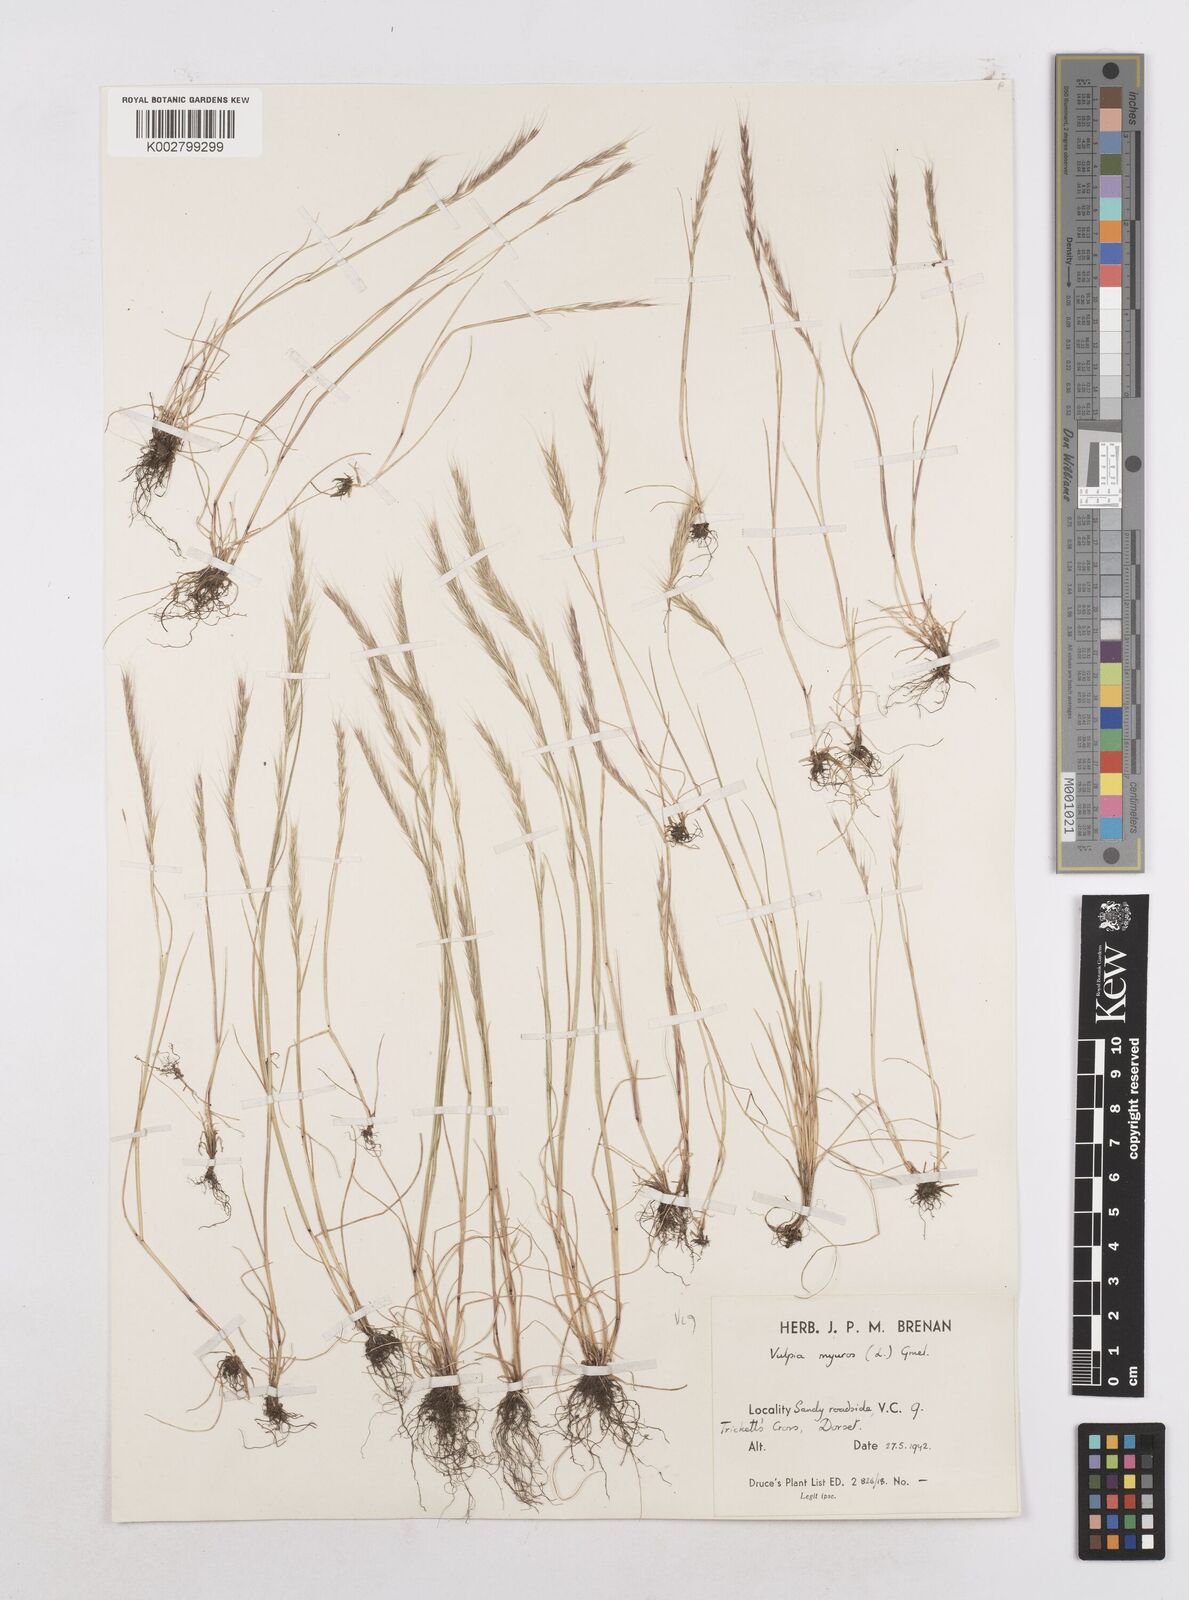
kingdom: Plantae
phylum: Tracheophyta
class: Liliopsida
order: Poales
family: Poaceae
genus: Festuca
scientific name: Festuca myuros
